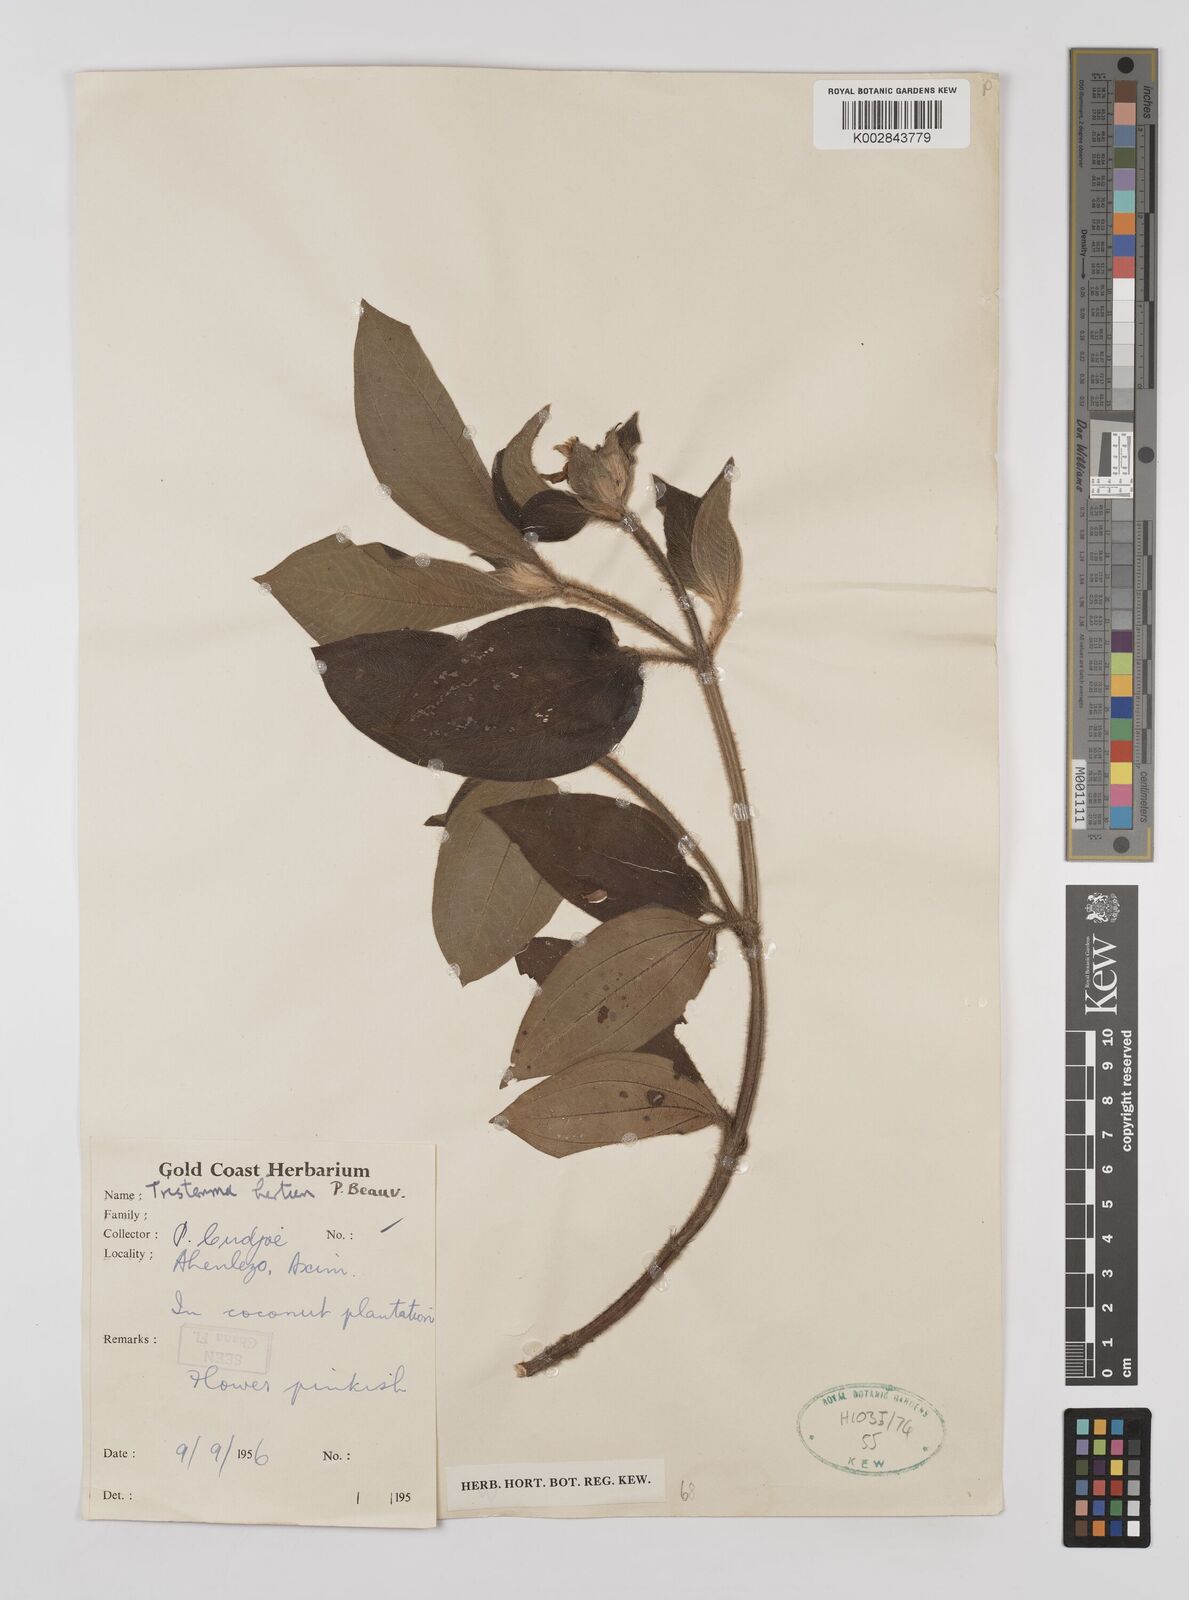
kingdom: Plantae
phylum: Tracheophyta
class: Magnoliopsida
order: Myrtales
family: Melastomataceae
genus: Tristemma
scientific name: Tristemma
